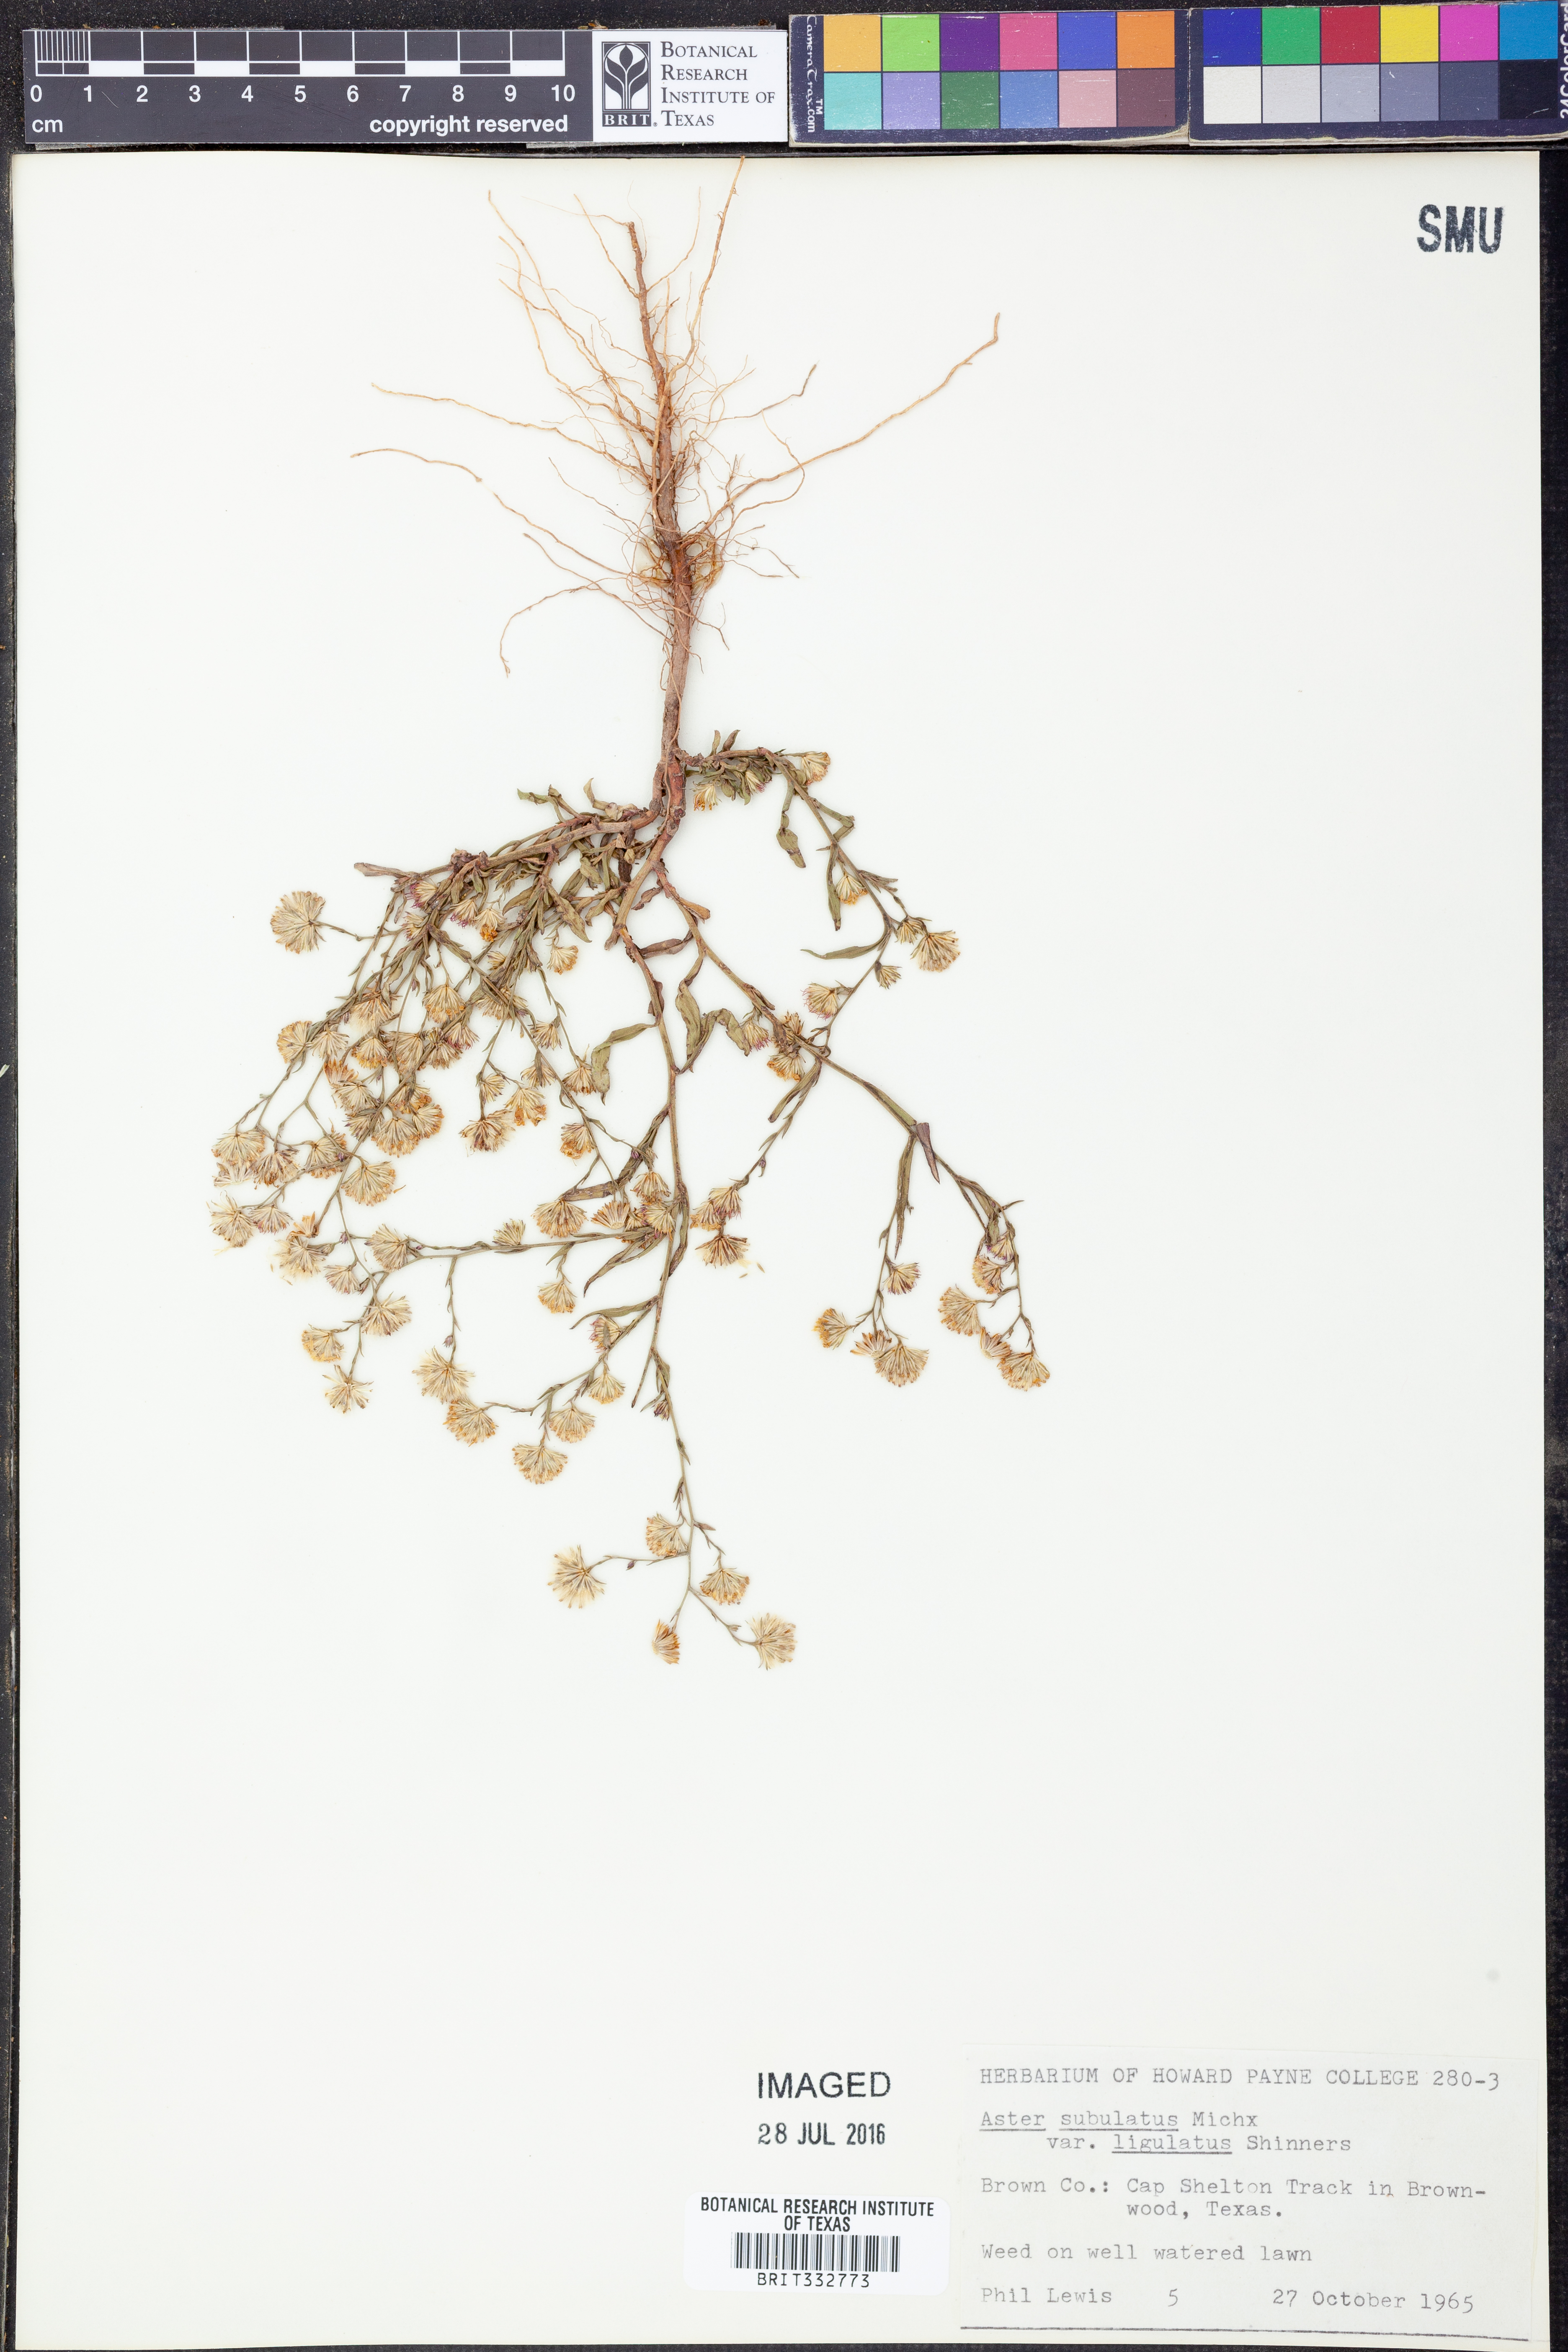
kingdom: Plantae
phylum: Tracheophyta
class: Magnoliopsida
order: Asterales
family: Asteraceae
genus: Symphyotrichum
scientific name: Symphyotrichum divaricatum
